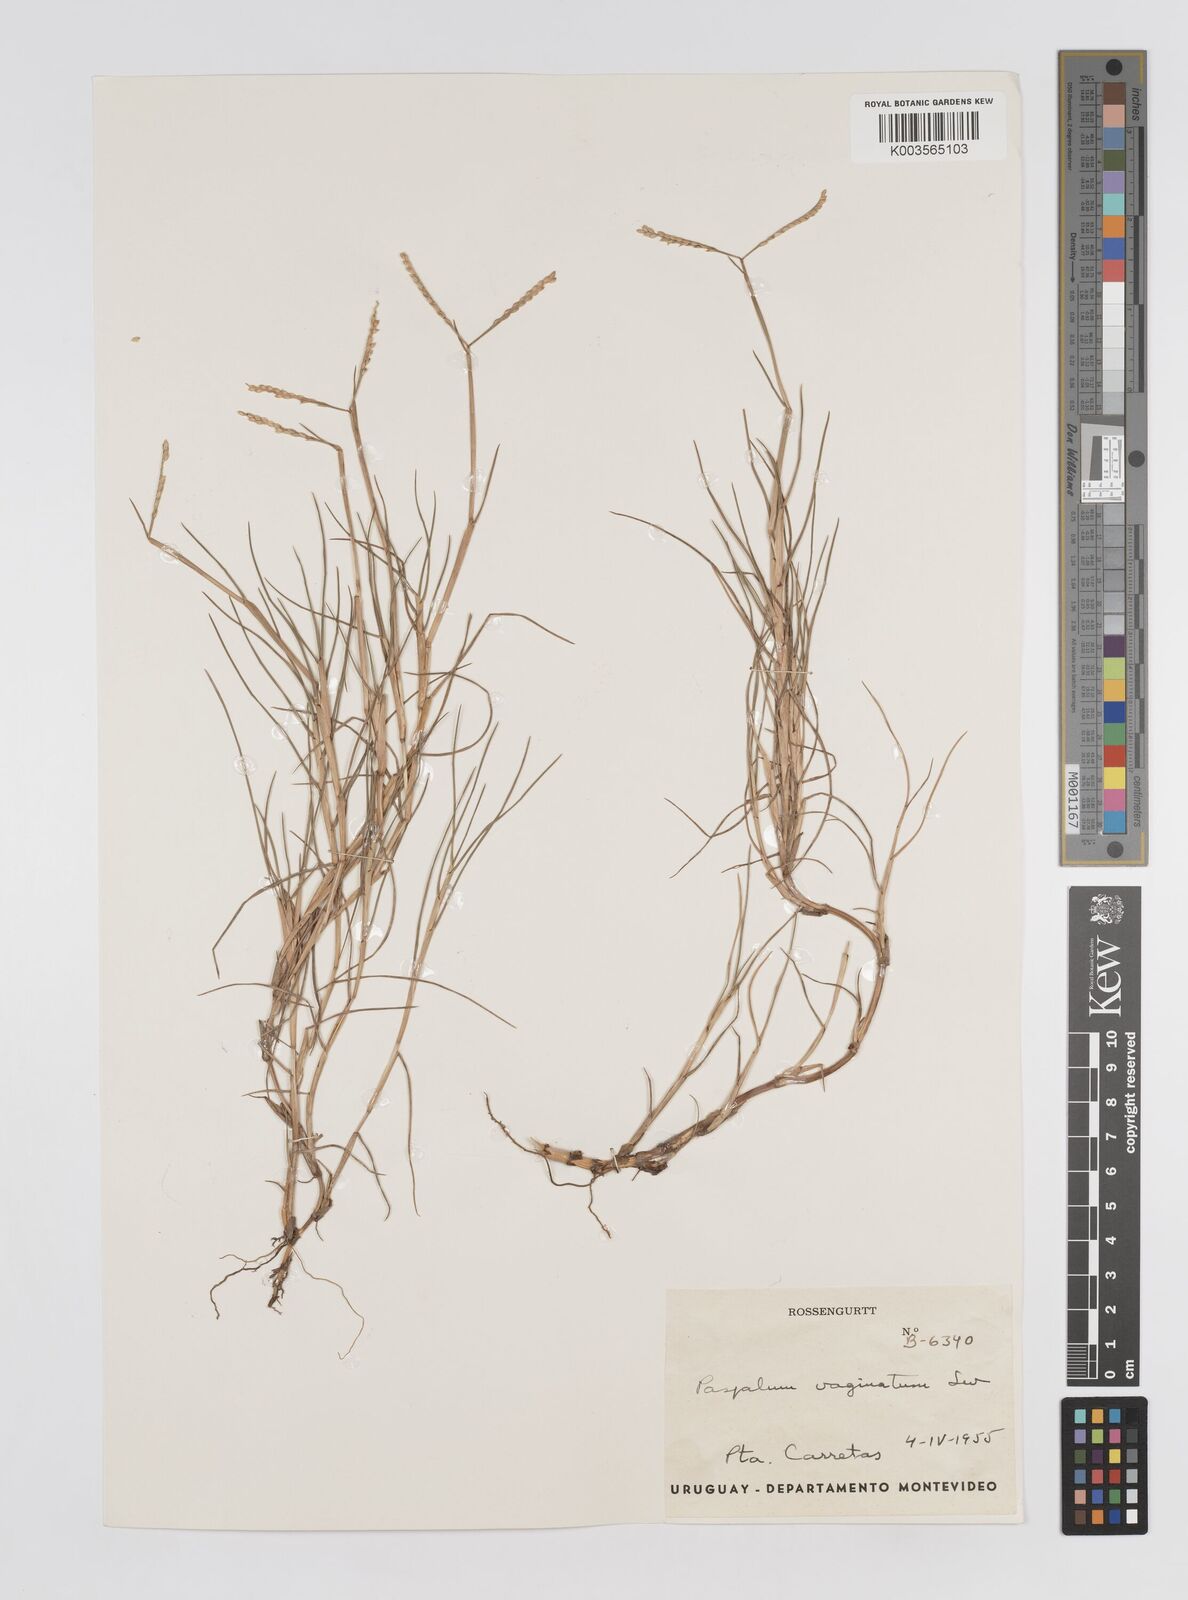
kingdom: Plantae
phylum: Tracheophyta
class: Liliopsida
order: Poales
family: Poaceae
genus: Paspalum
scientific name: Paspalum vaginatum
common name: Seashore paspalum
